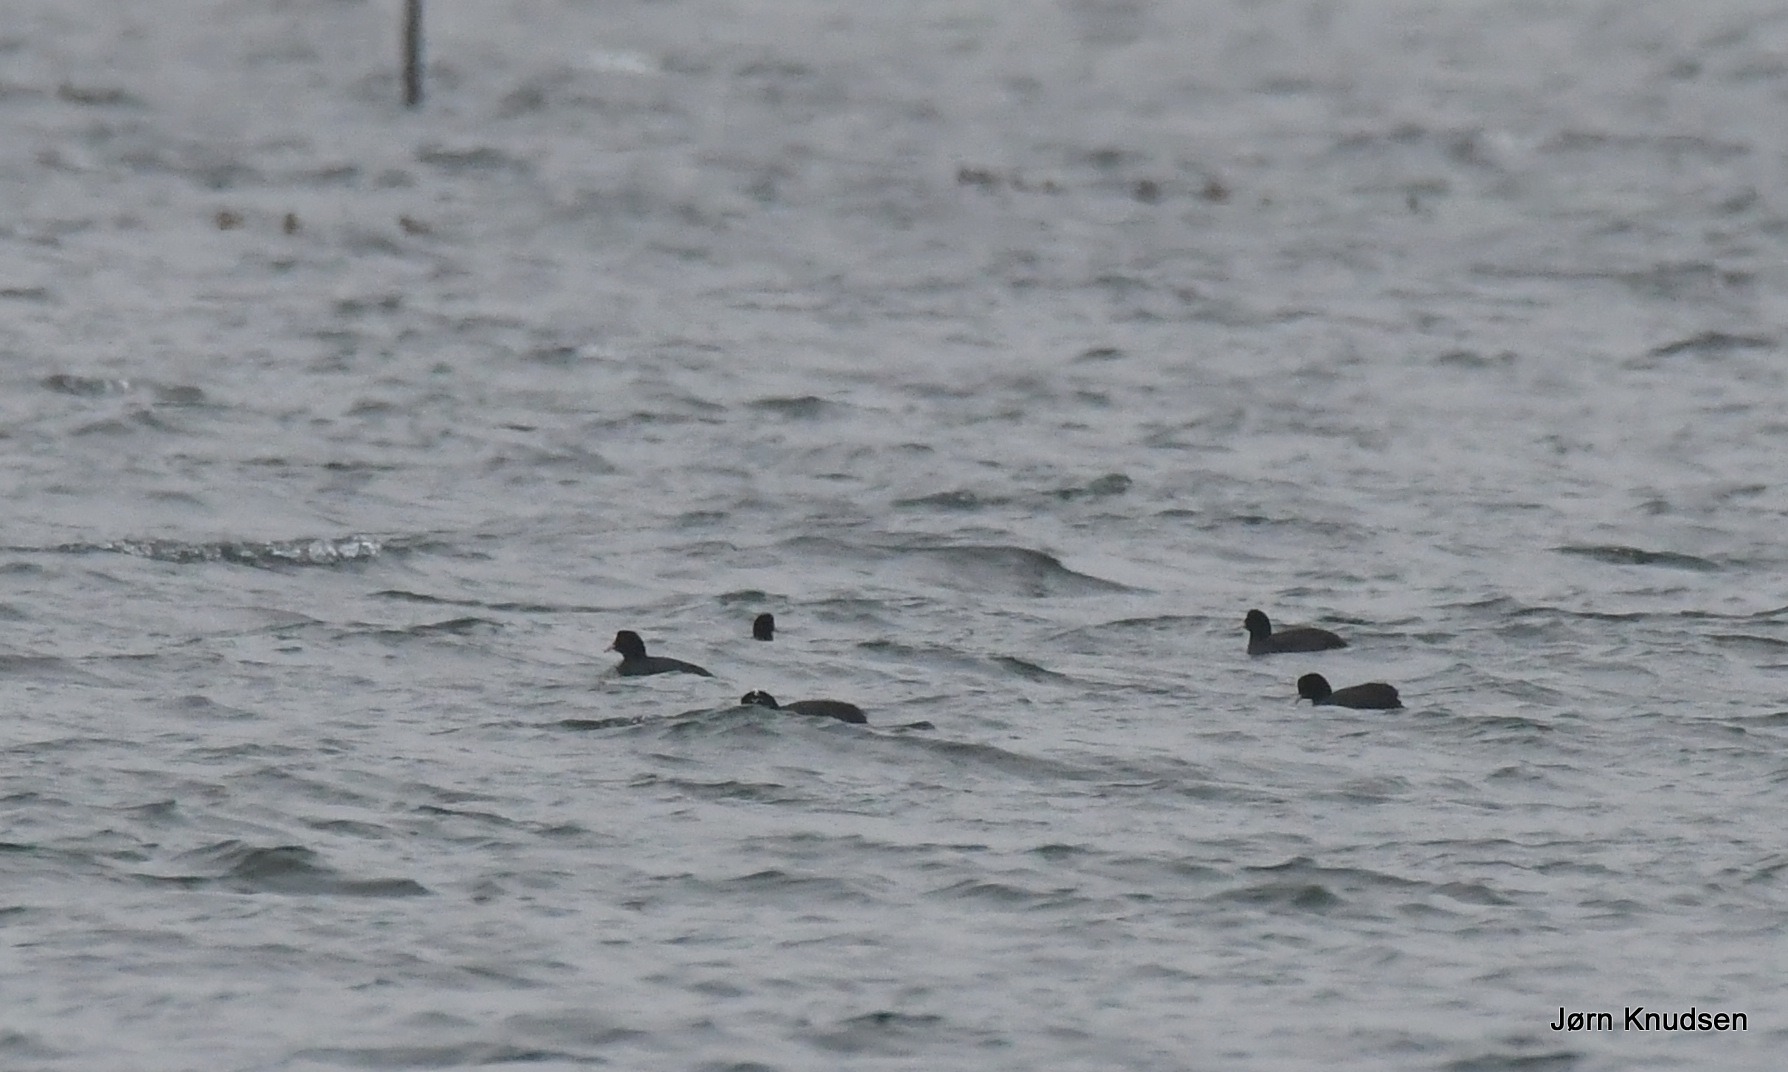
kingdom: Animalia
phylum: Chordata
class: Aves
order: Gruiformes
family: Rallidae
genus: Fulica
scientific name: Fulica atra
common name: Blishøne
